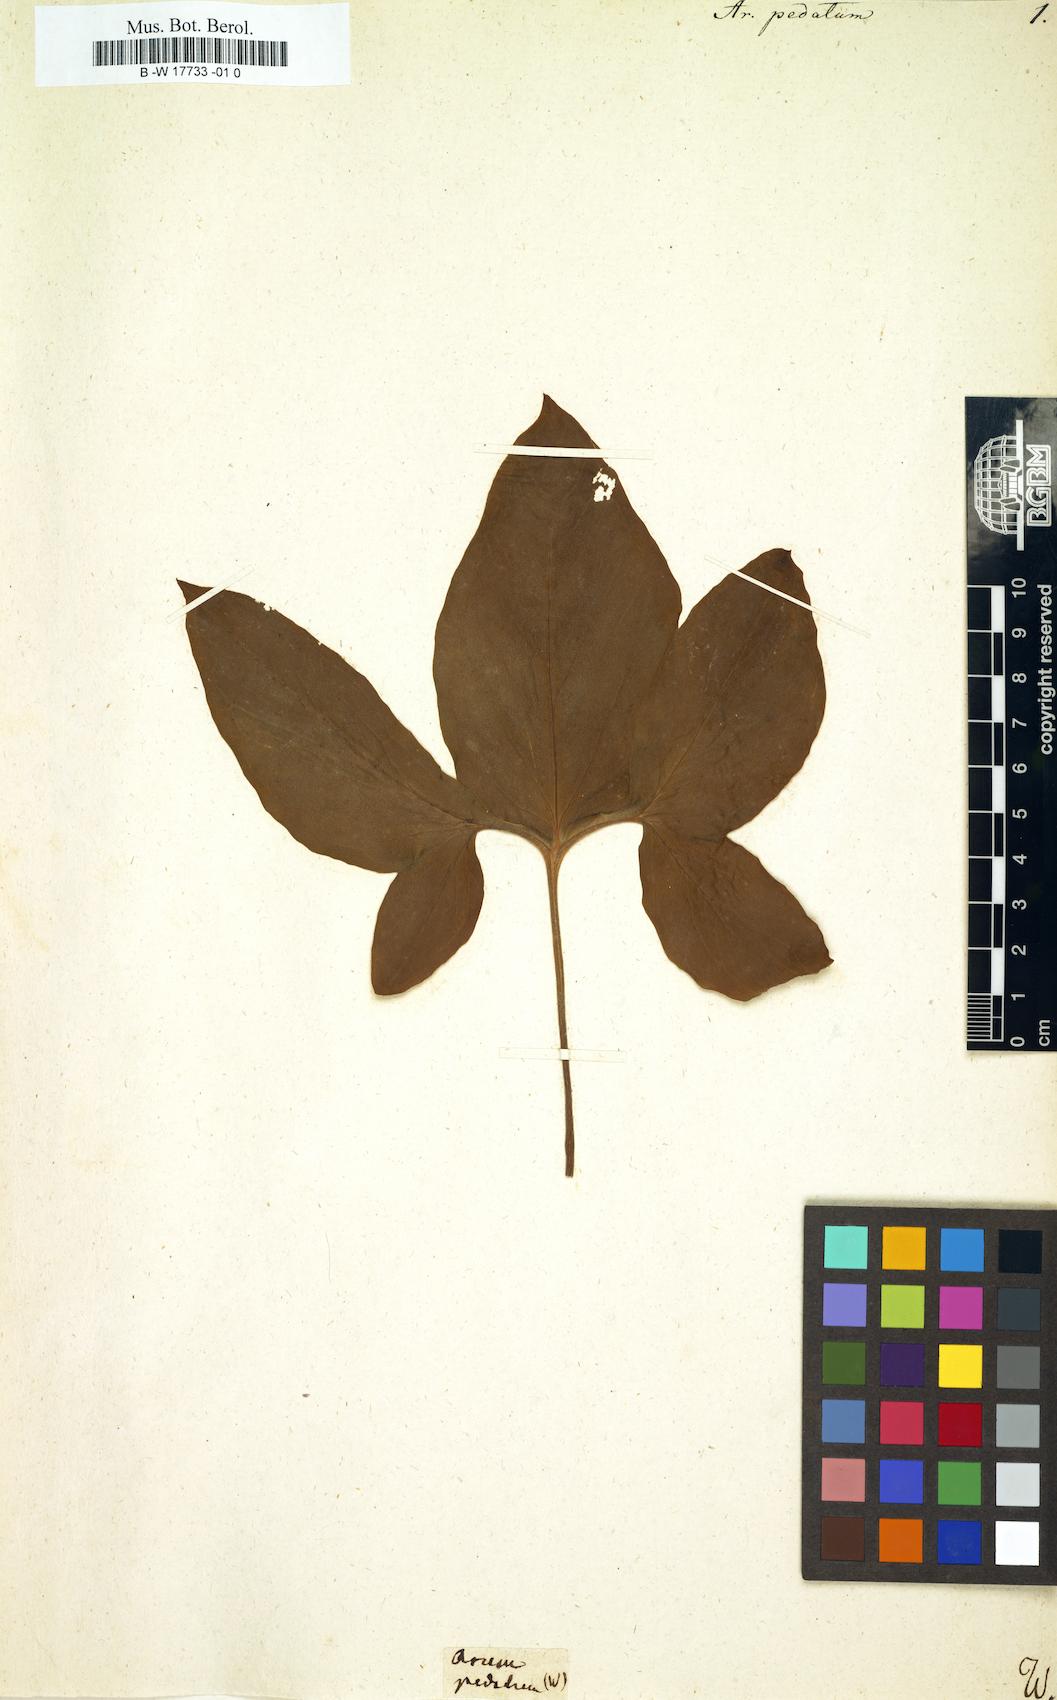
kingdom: Plantae
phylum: Tracheophyta
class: Liliopsida
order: Alismatales
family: Araceae
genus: Sauromatum
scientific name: Sauromatum venosum
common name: Voodoo lily
